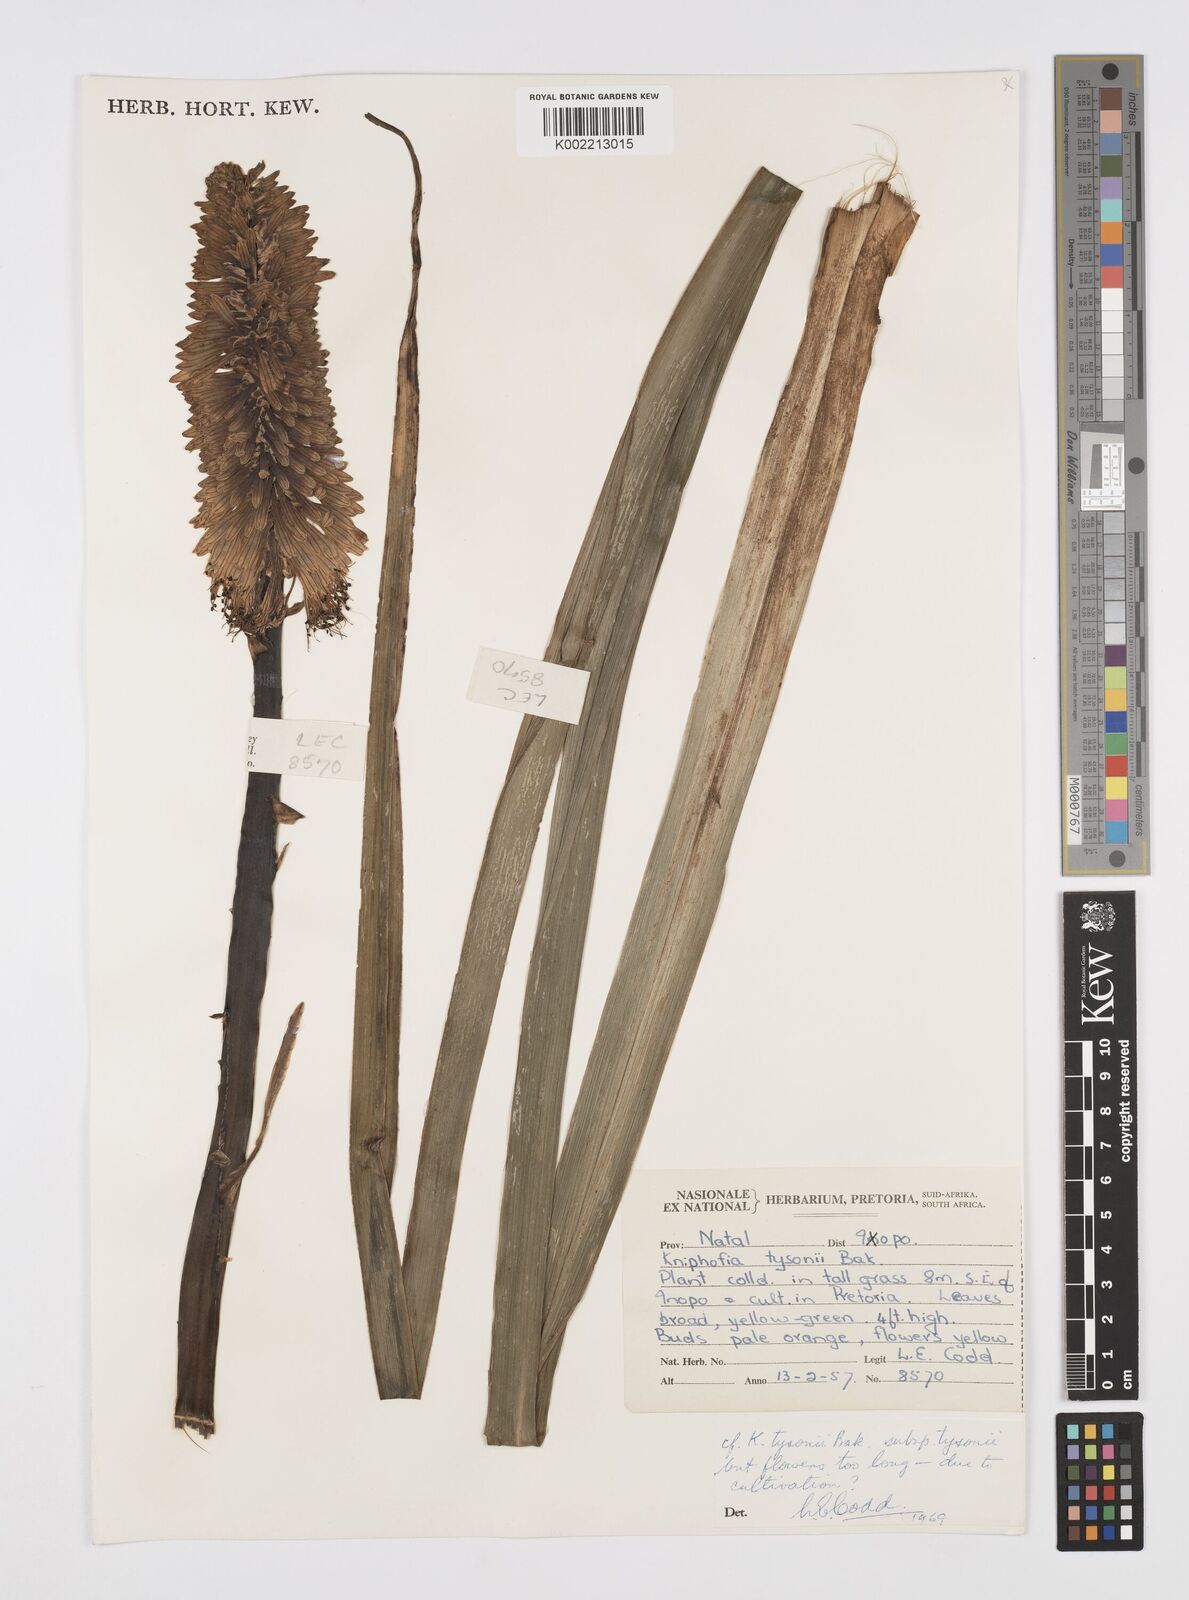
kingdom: Plantae
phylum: Tracheophyta
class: Liliopsida
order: Asparagales
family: Asphodelaceae
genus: Kniphofia
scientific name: Kniphofia tysonii
